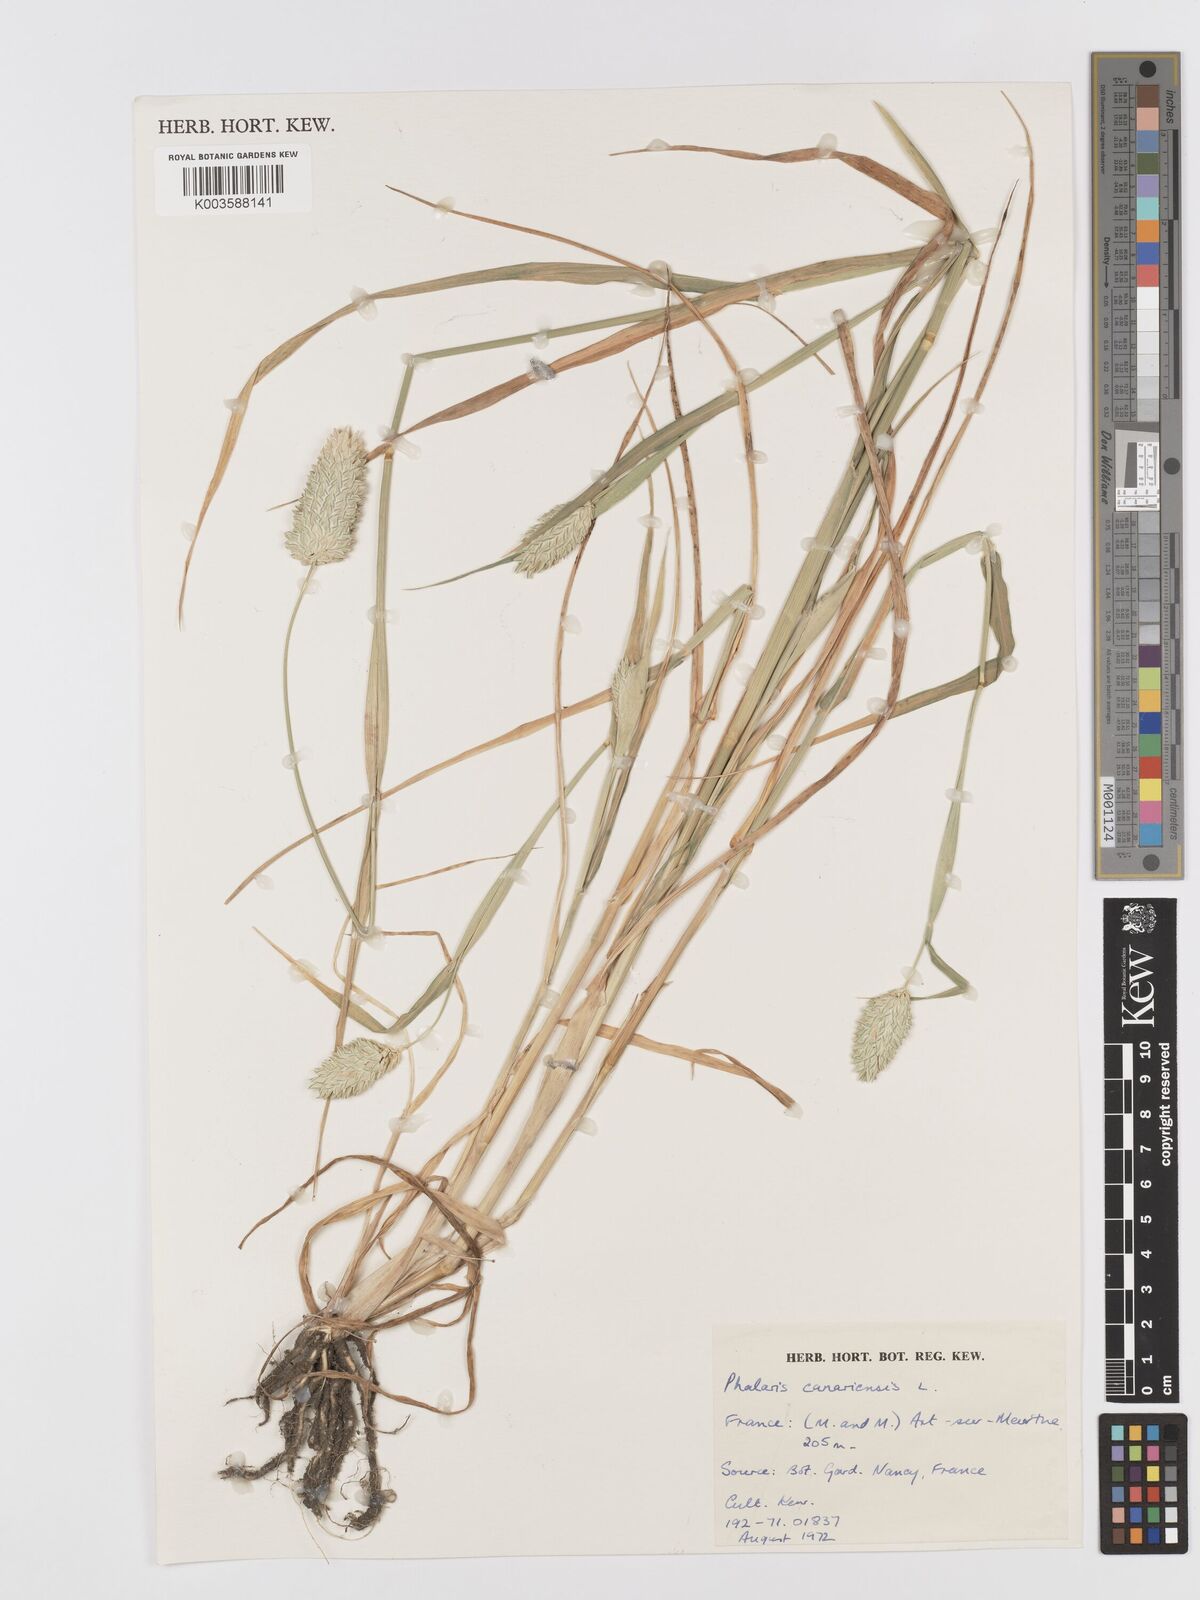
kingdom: Plantae
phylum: Tracheophyta
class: Liliopsida
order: Poales
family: Poaceae
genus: Phalaris
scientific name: Phalaris canariensis
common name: Annual canarygrass
